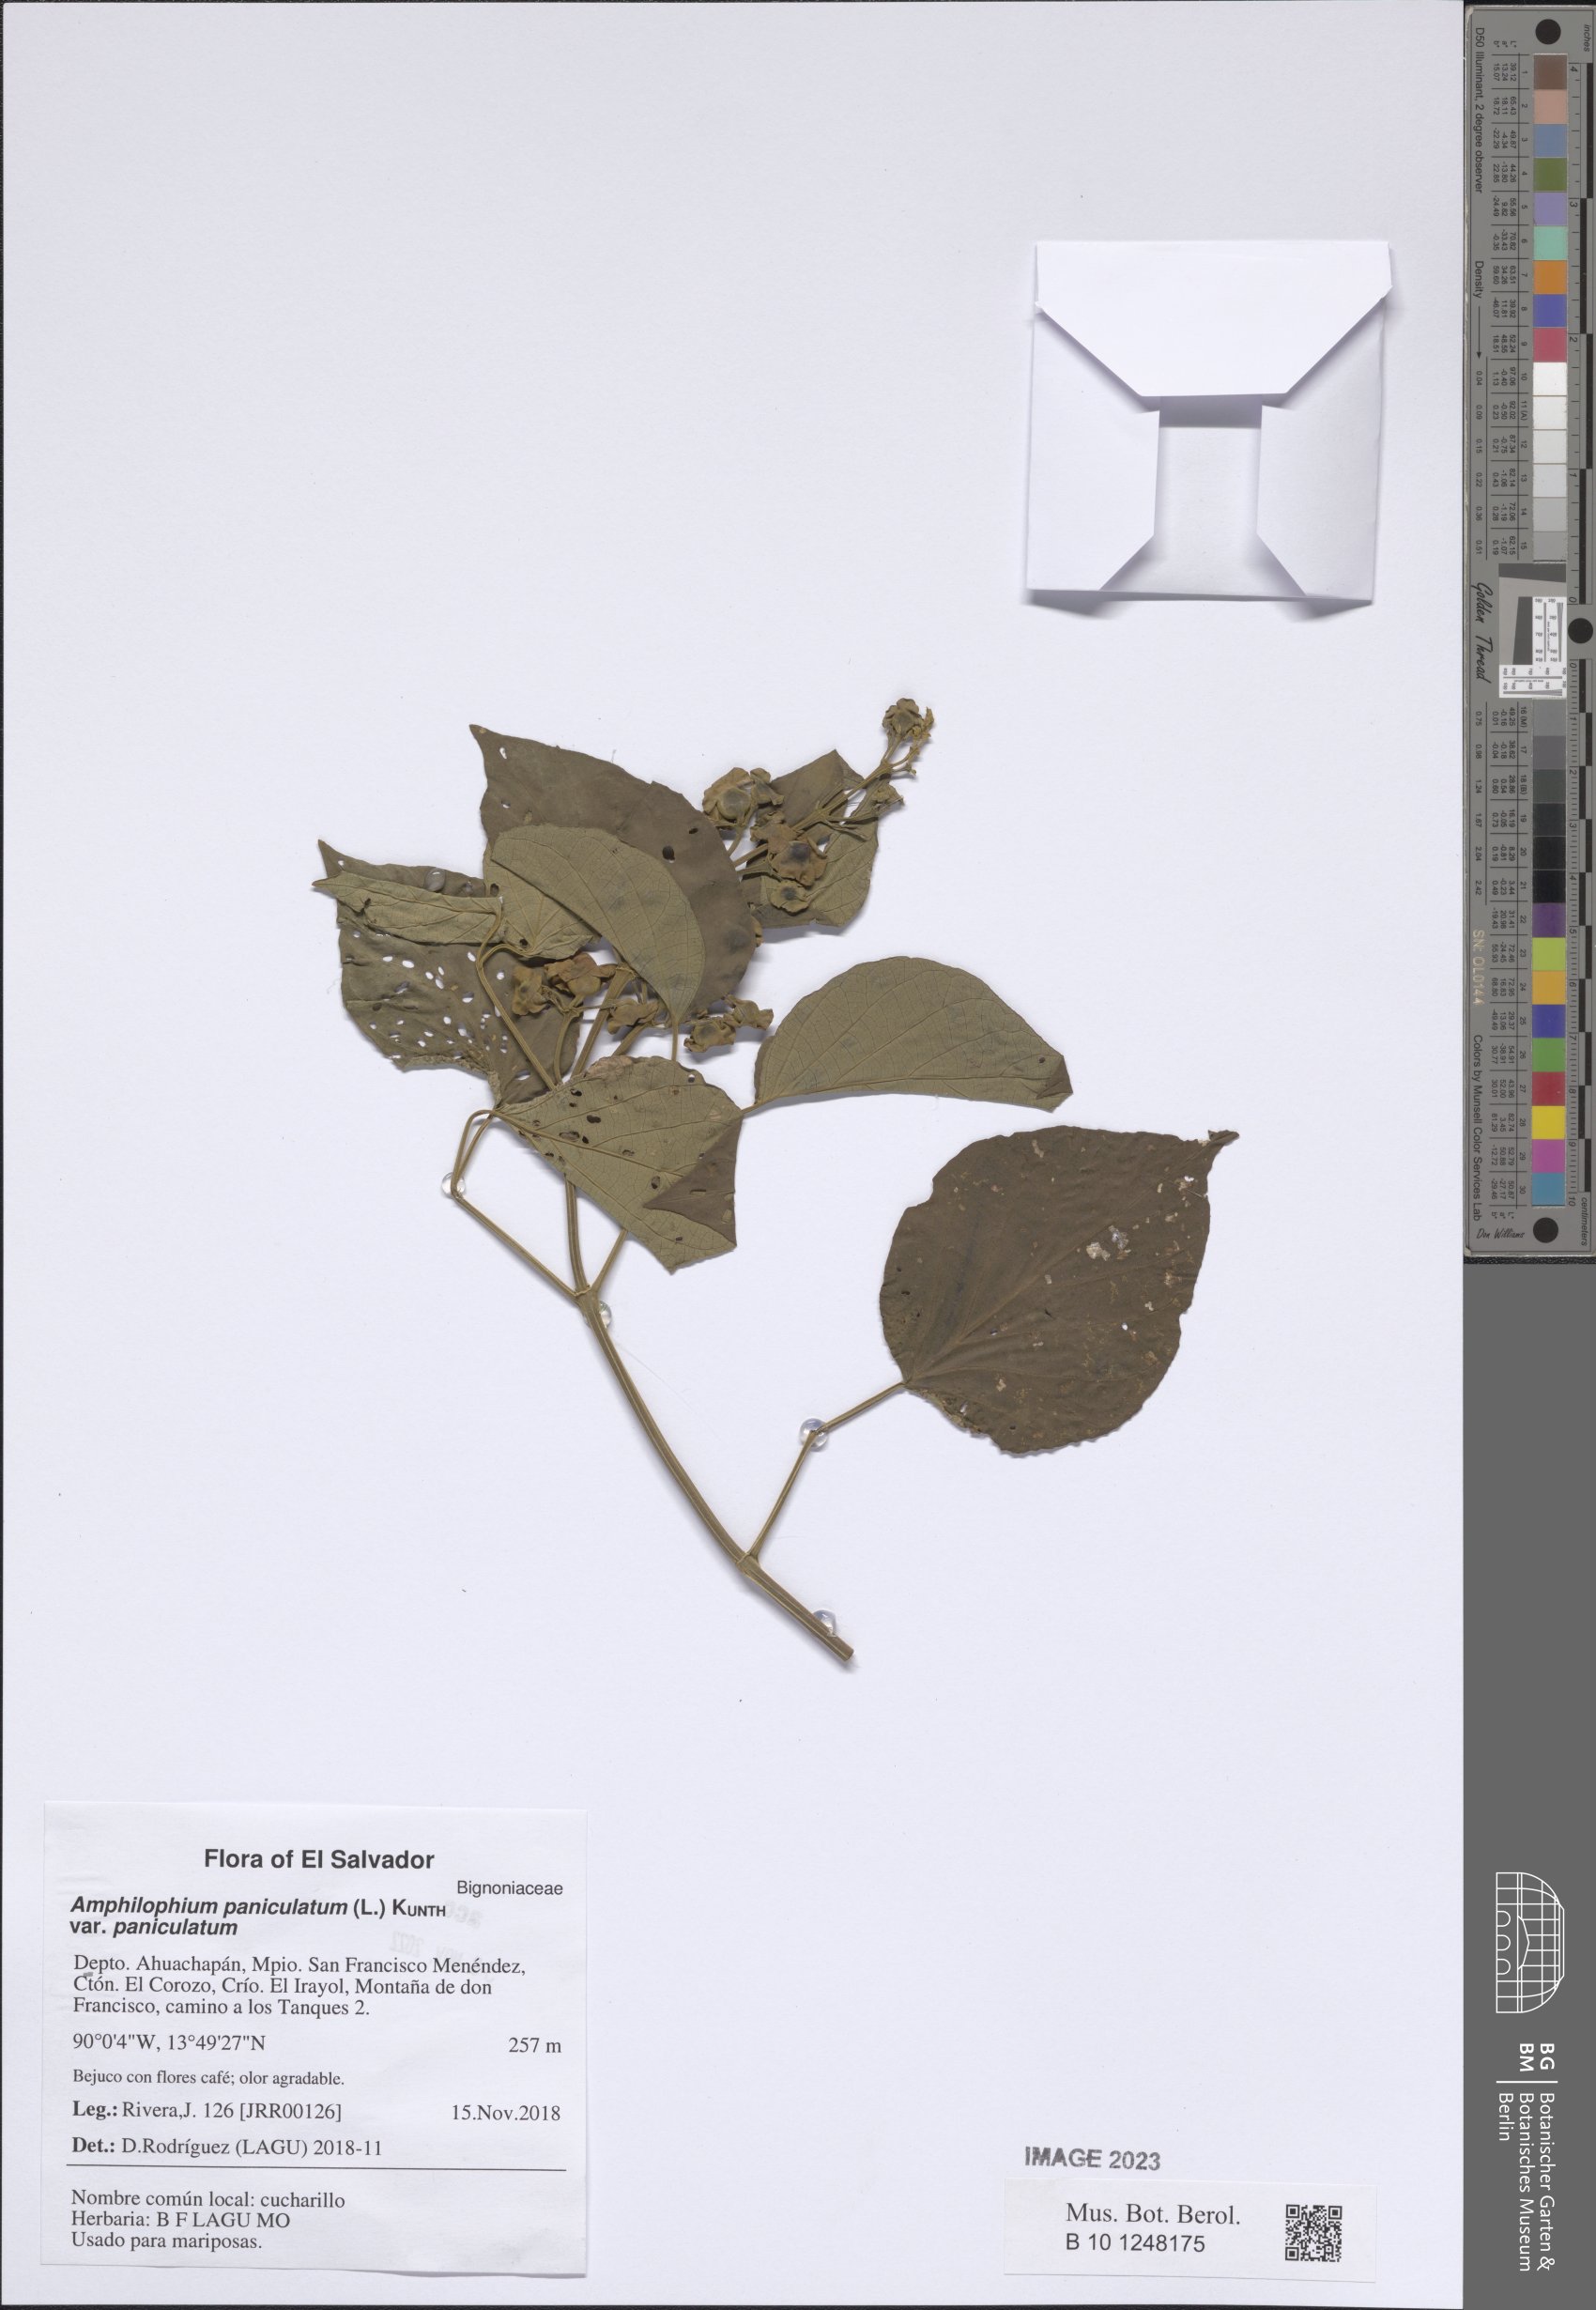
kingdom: Plantae
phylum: Tracheophyta
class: Magnoliopsida
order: Lamiales
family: Bignoniaceae
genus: Amphilophium
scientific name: Amphilophium paniculatum
